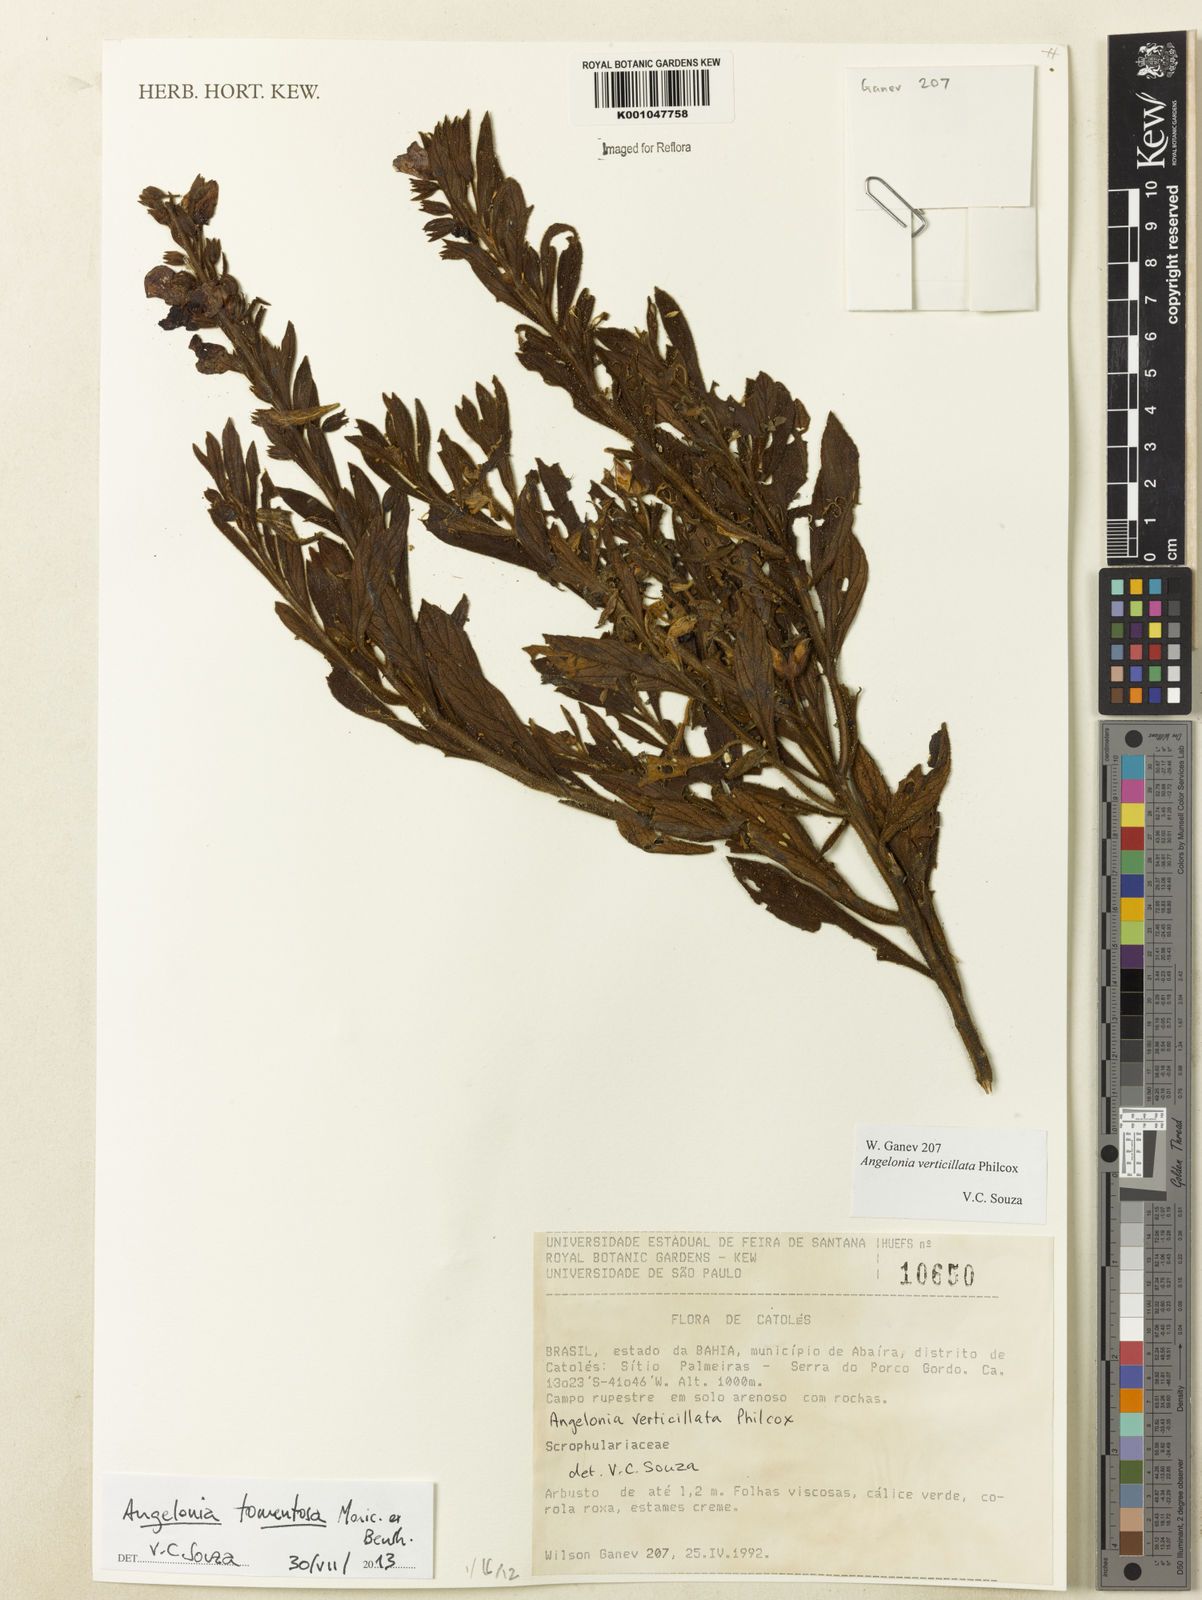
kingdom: Plantae
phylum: Tracheophyta
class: Magnoliopsida
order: Lamiales
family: Plantaginaceae
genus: Angelonia
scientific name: Angelonia tomentosa
